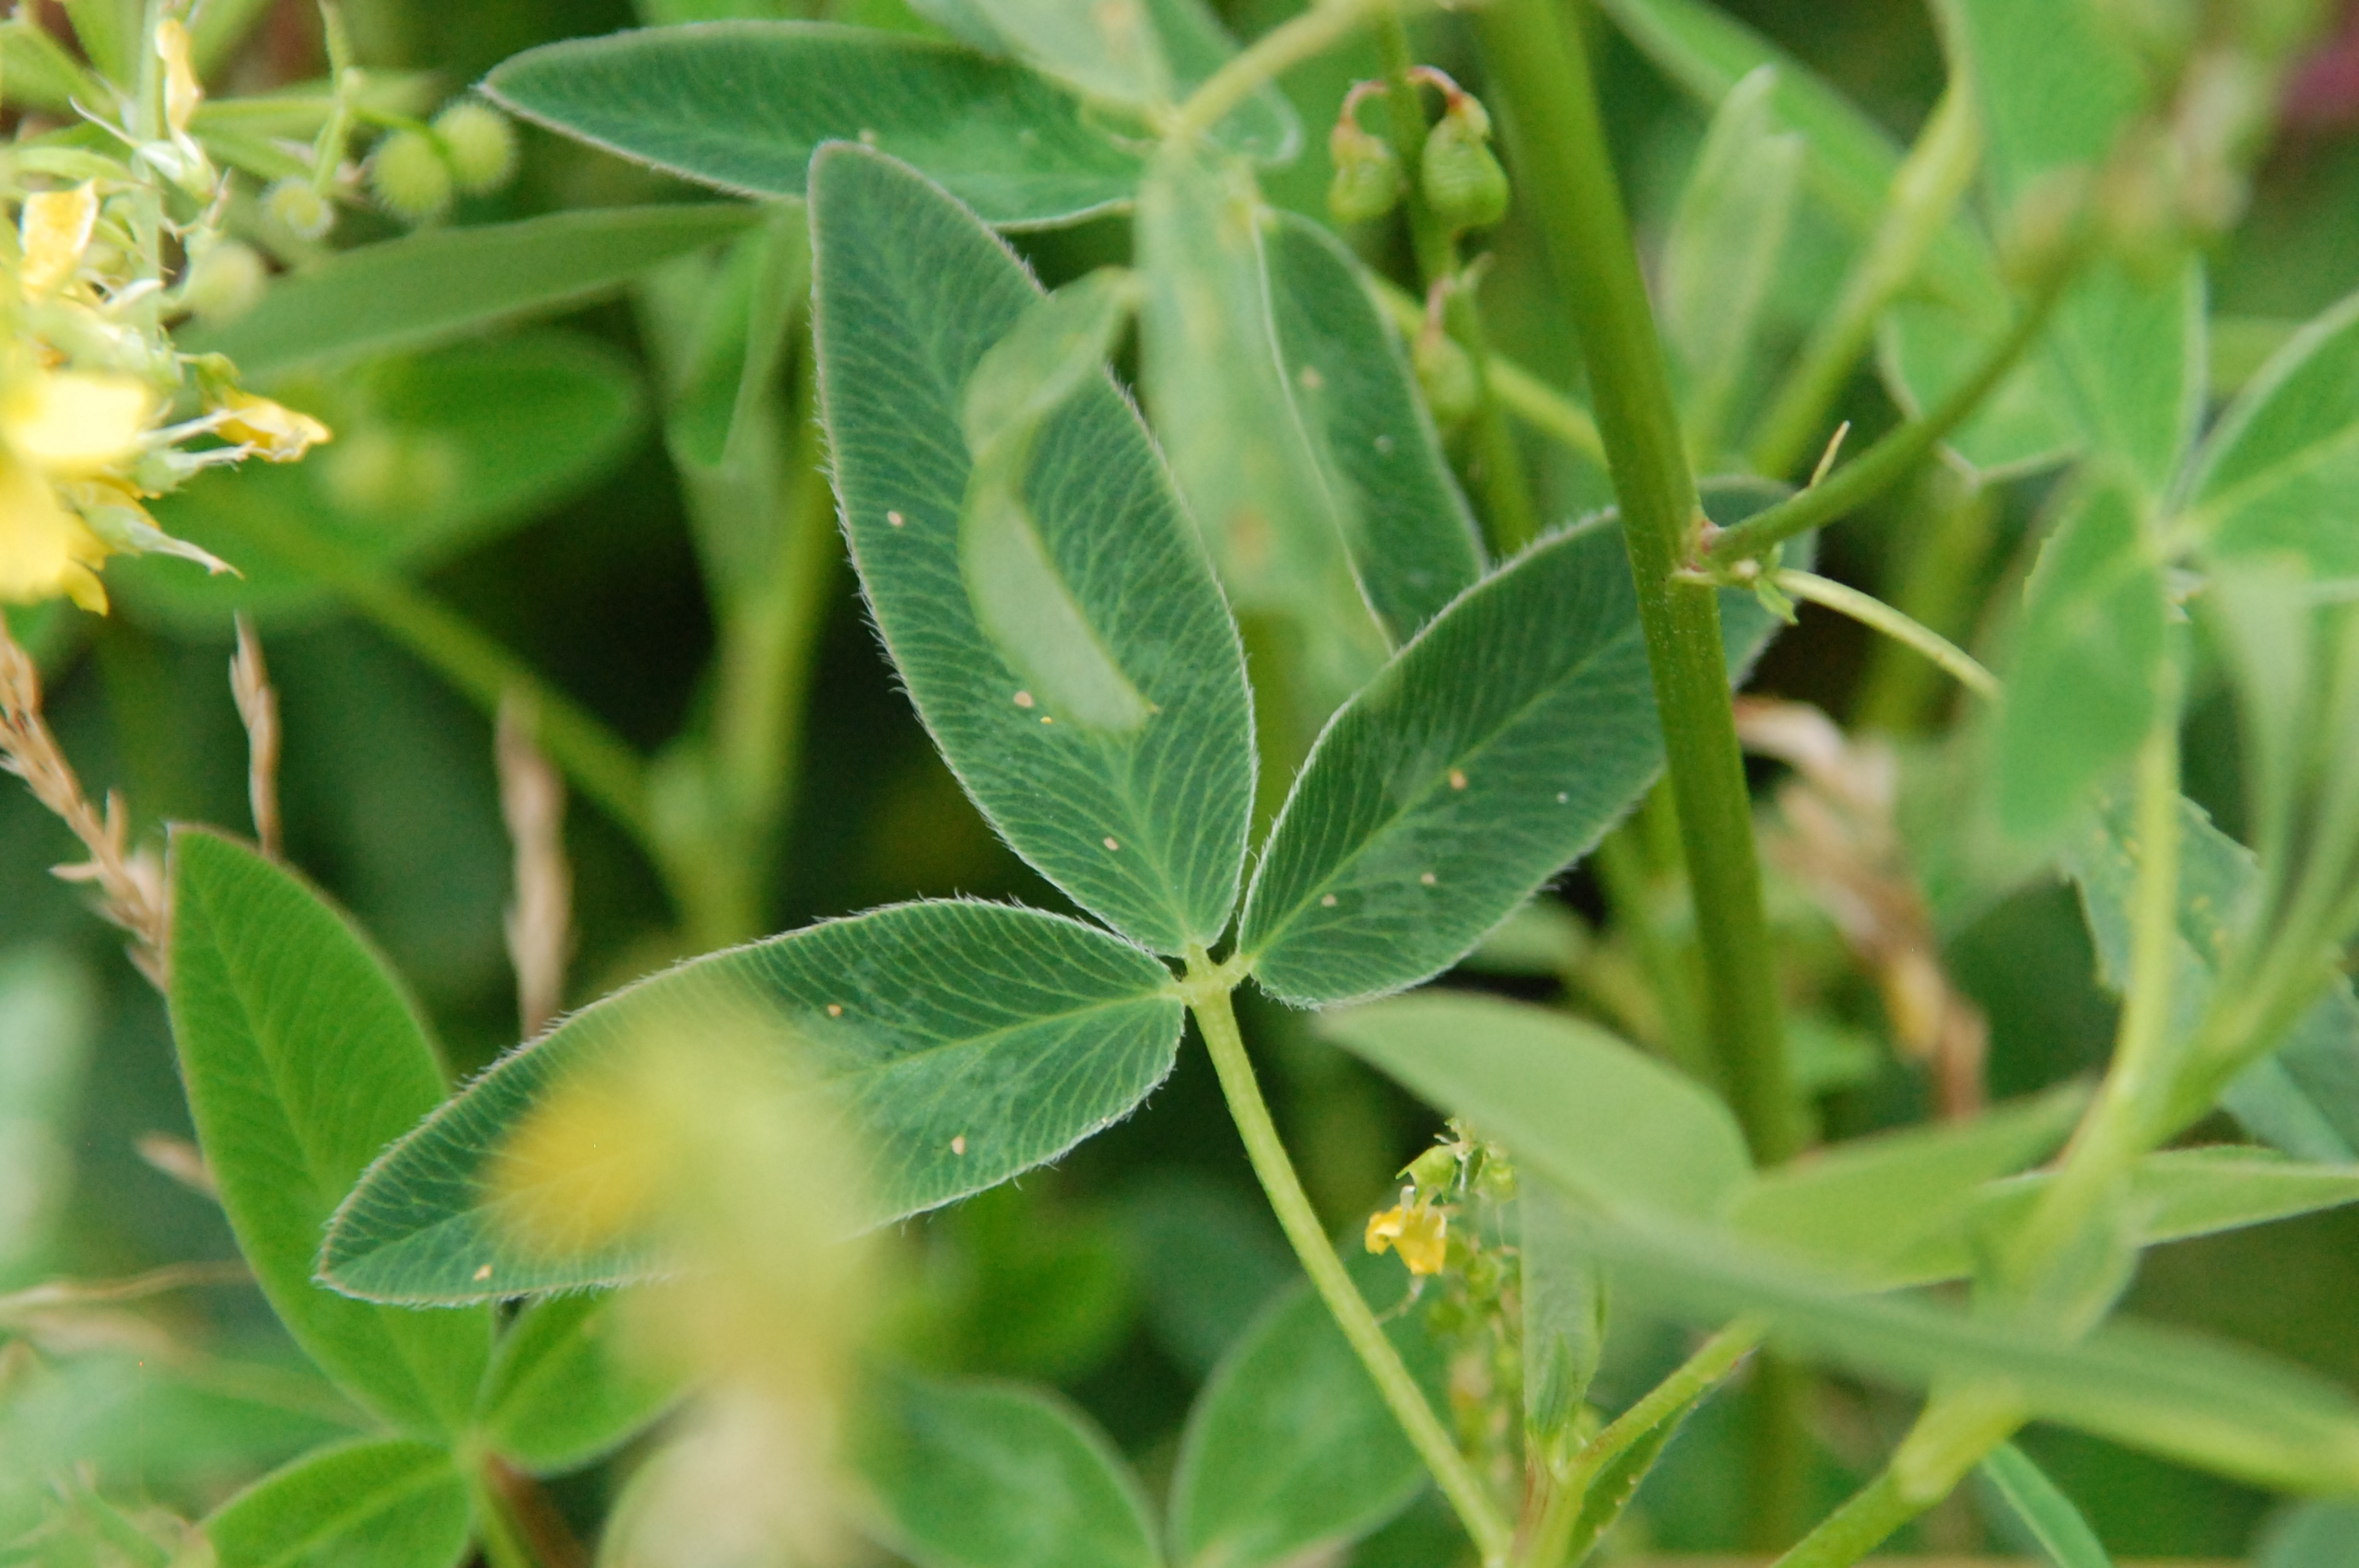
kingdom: Plantae
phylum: Tracheophyta
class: Magnoliopsida
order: Fabales
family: Fabaceae
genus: Melilotus
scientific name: Melilotus
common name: Stenkløverslægten
